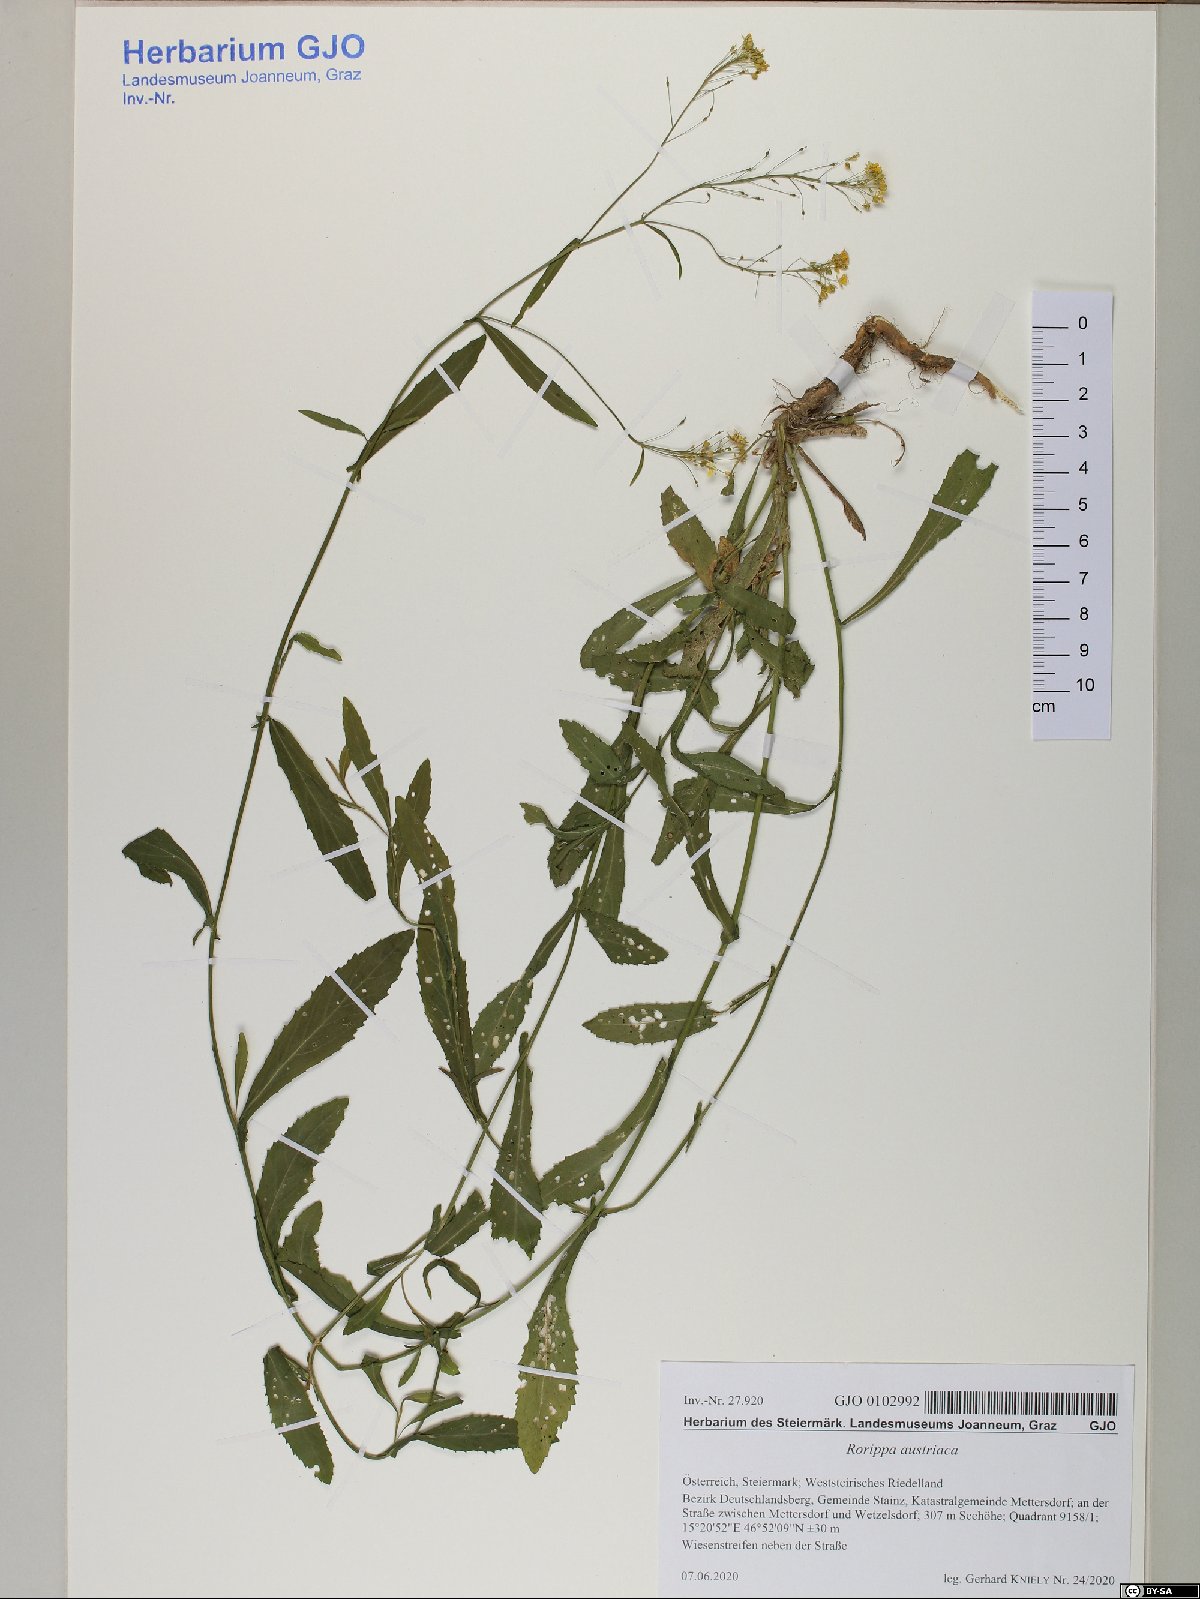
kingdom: Plantae
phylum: Tracheophyta
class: Magnoliopsida
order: Brassicales
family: Brassicaceae
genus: Rorippa
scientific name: Rorippa austriaca
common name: Austrian yellow-cress
